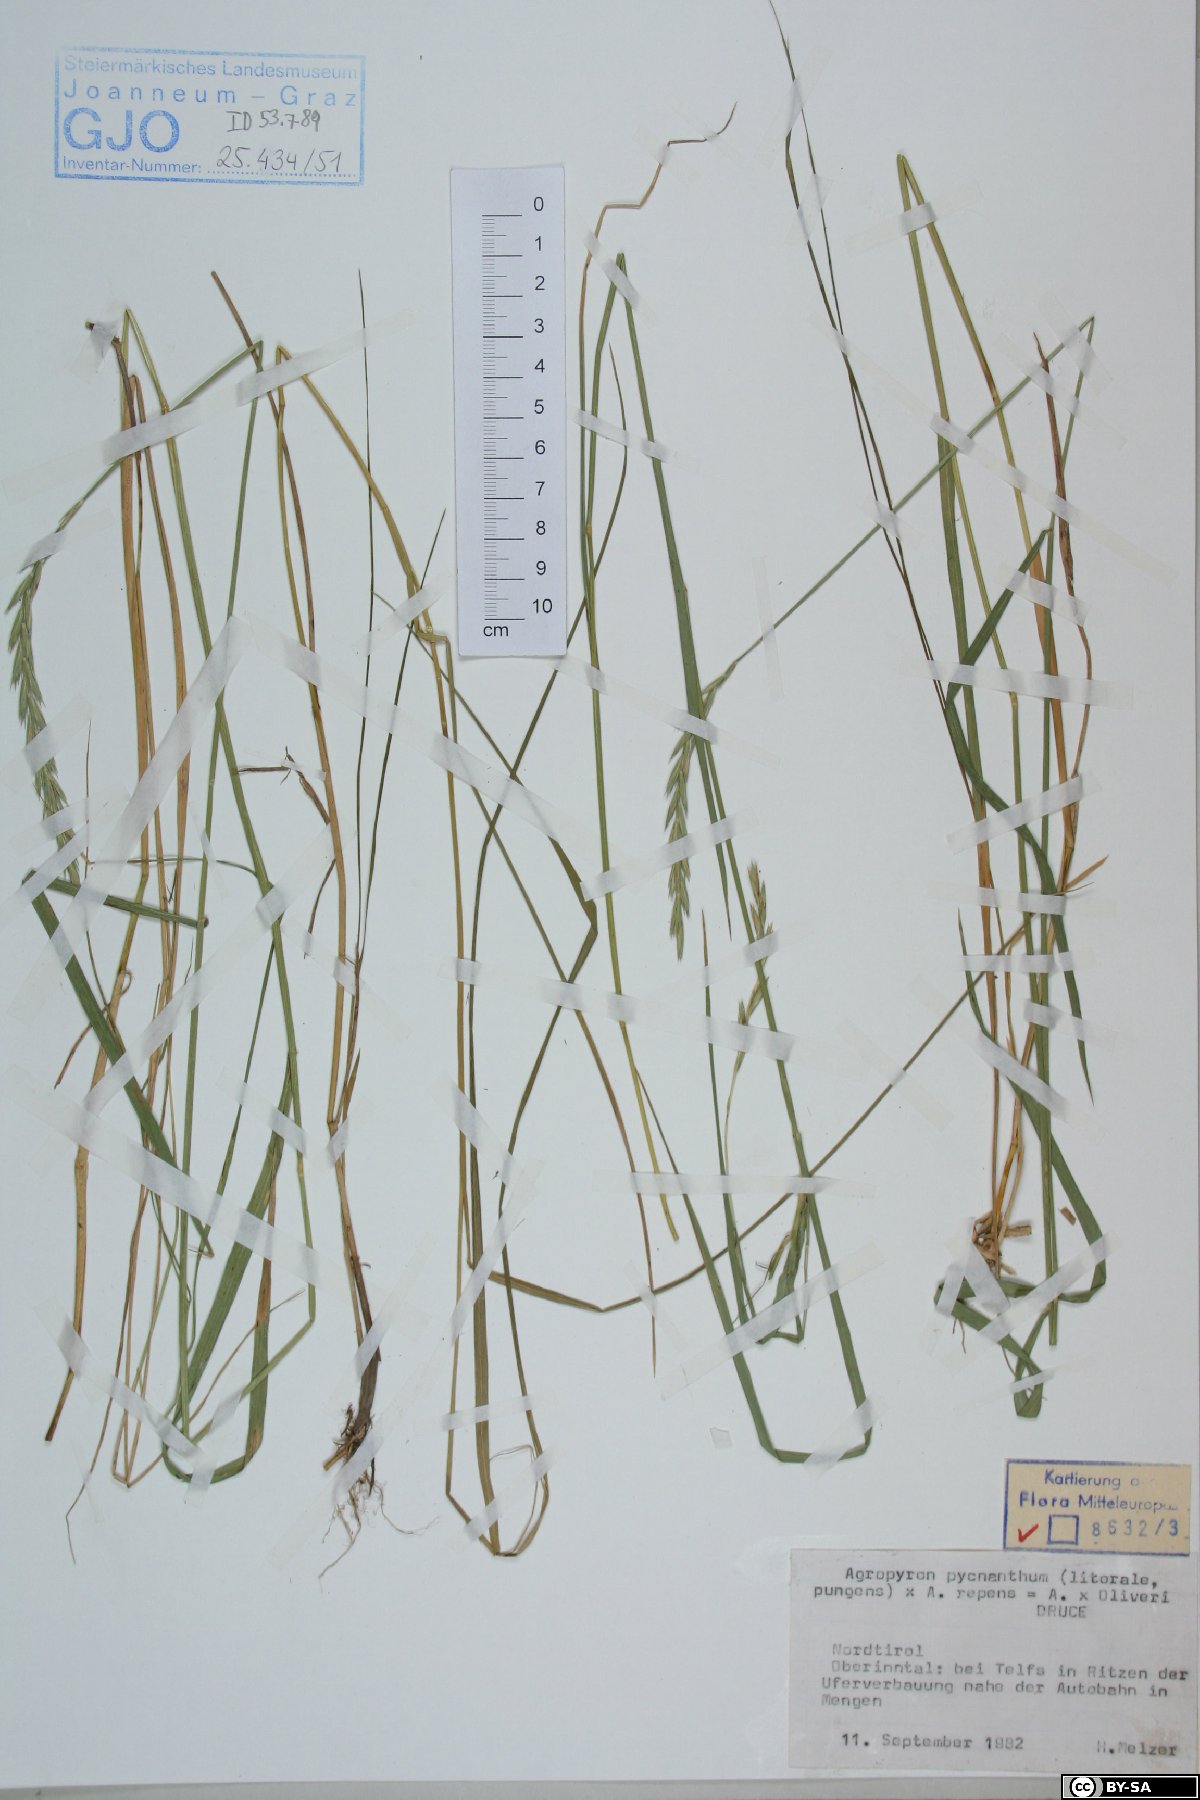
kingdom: Plantae
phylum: Tracheophyta
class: Liliopsida
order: Poales
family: Poaceae
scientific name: Poaceae
